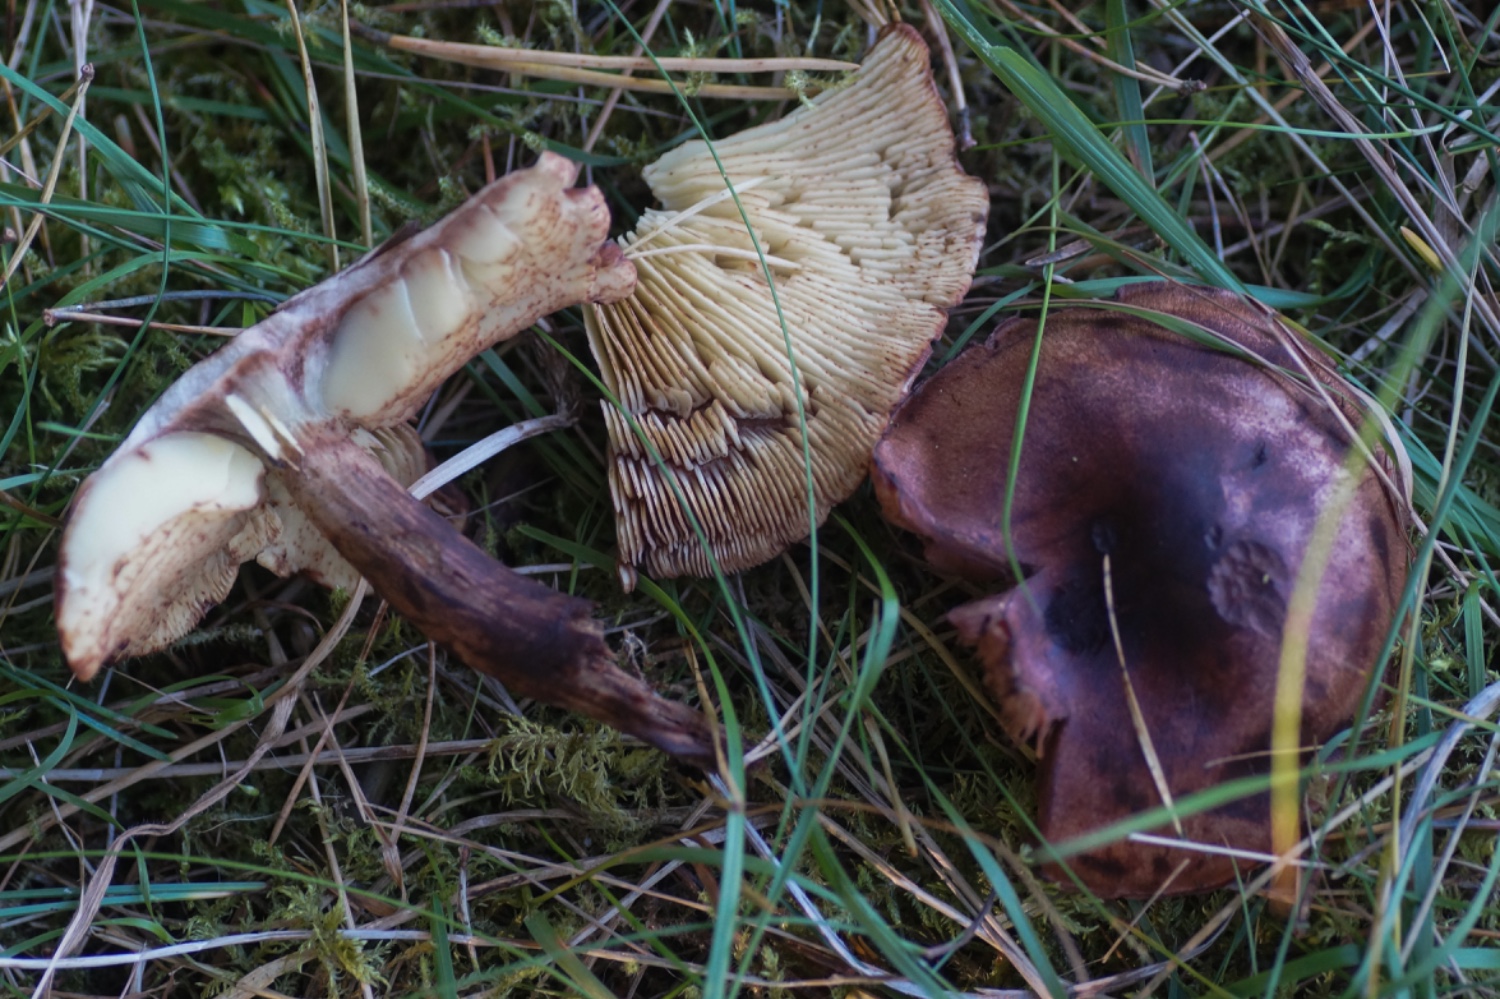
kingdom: Fungi
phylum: Basidiomycota
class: Agaricomycetes
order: Agaricales
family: Tricholomataceae
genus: Tricholoma
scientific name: Tricholoma fulvum
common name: birke-ridderhat
